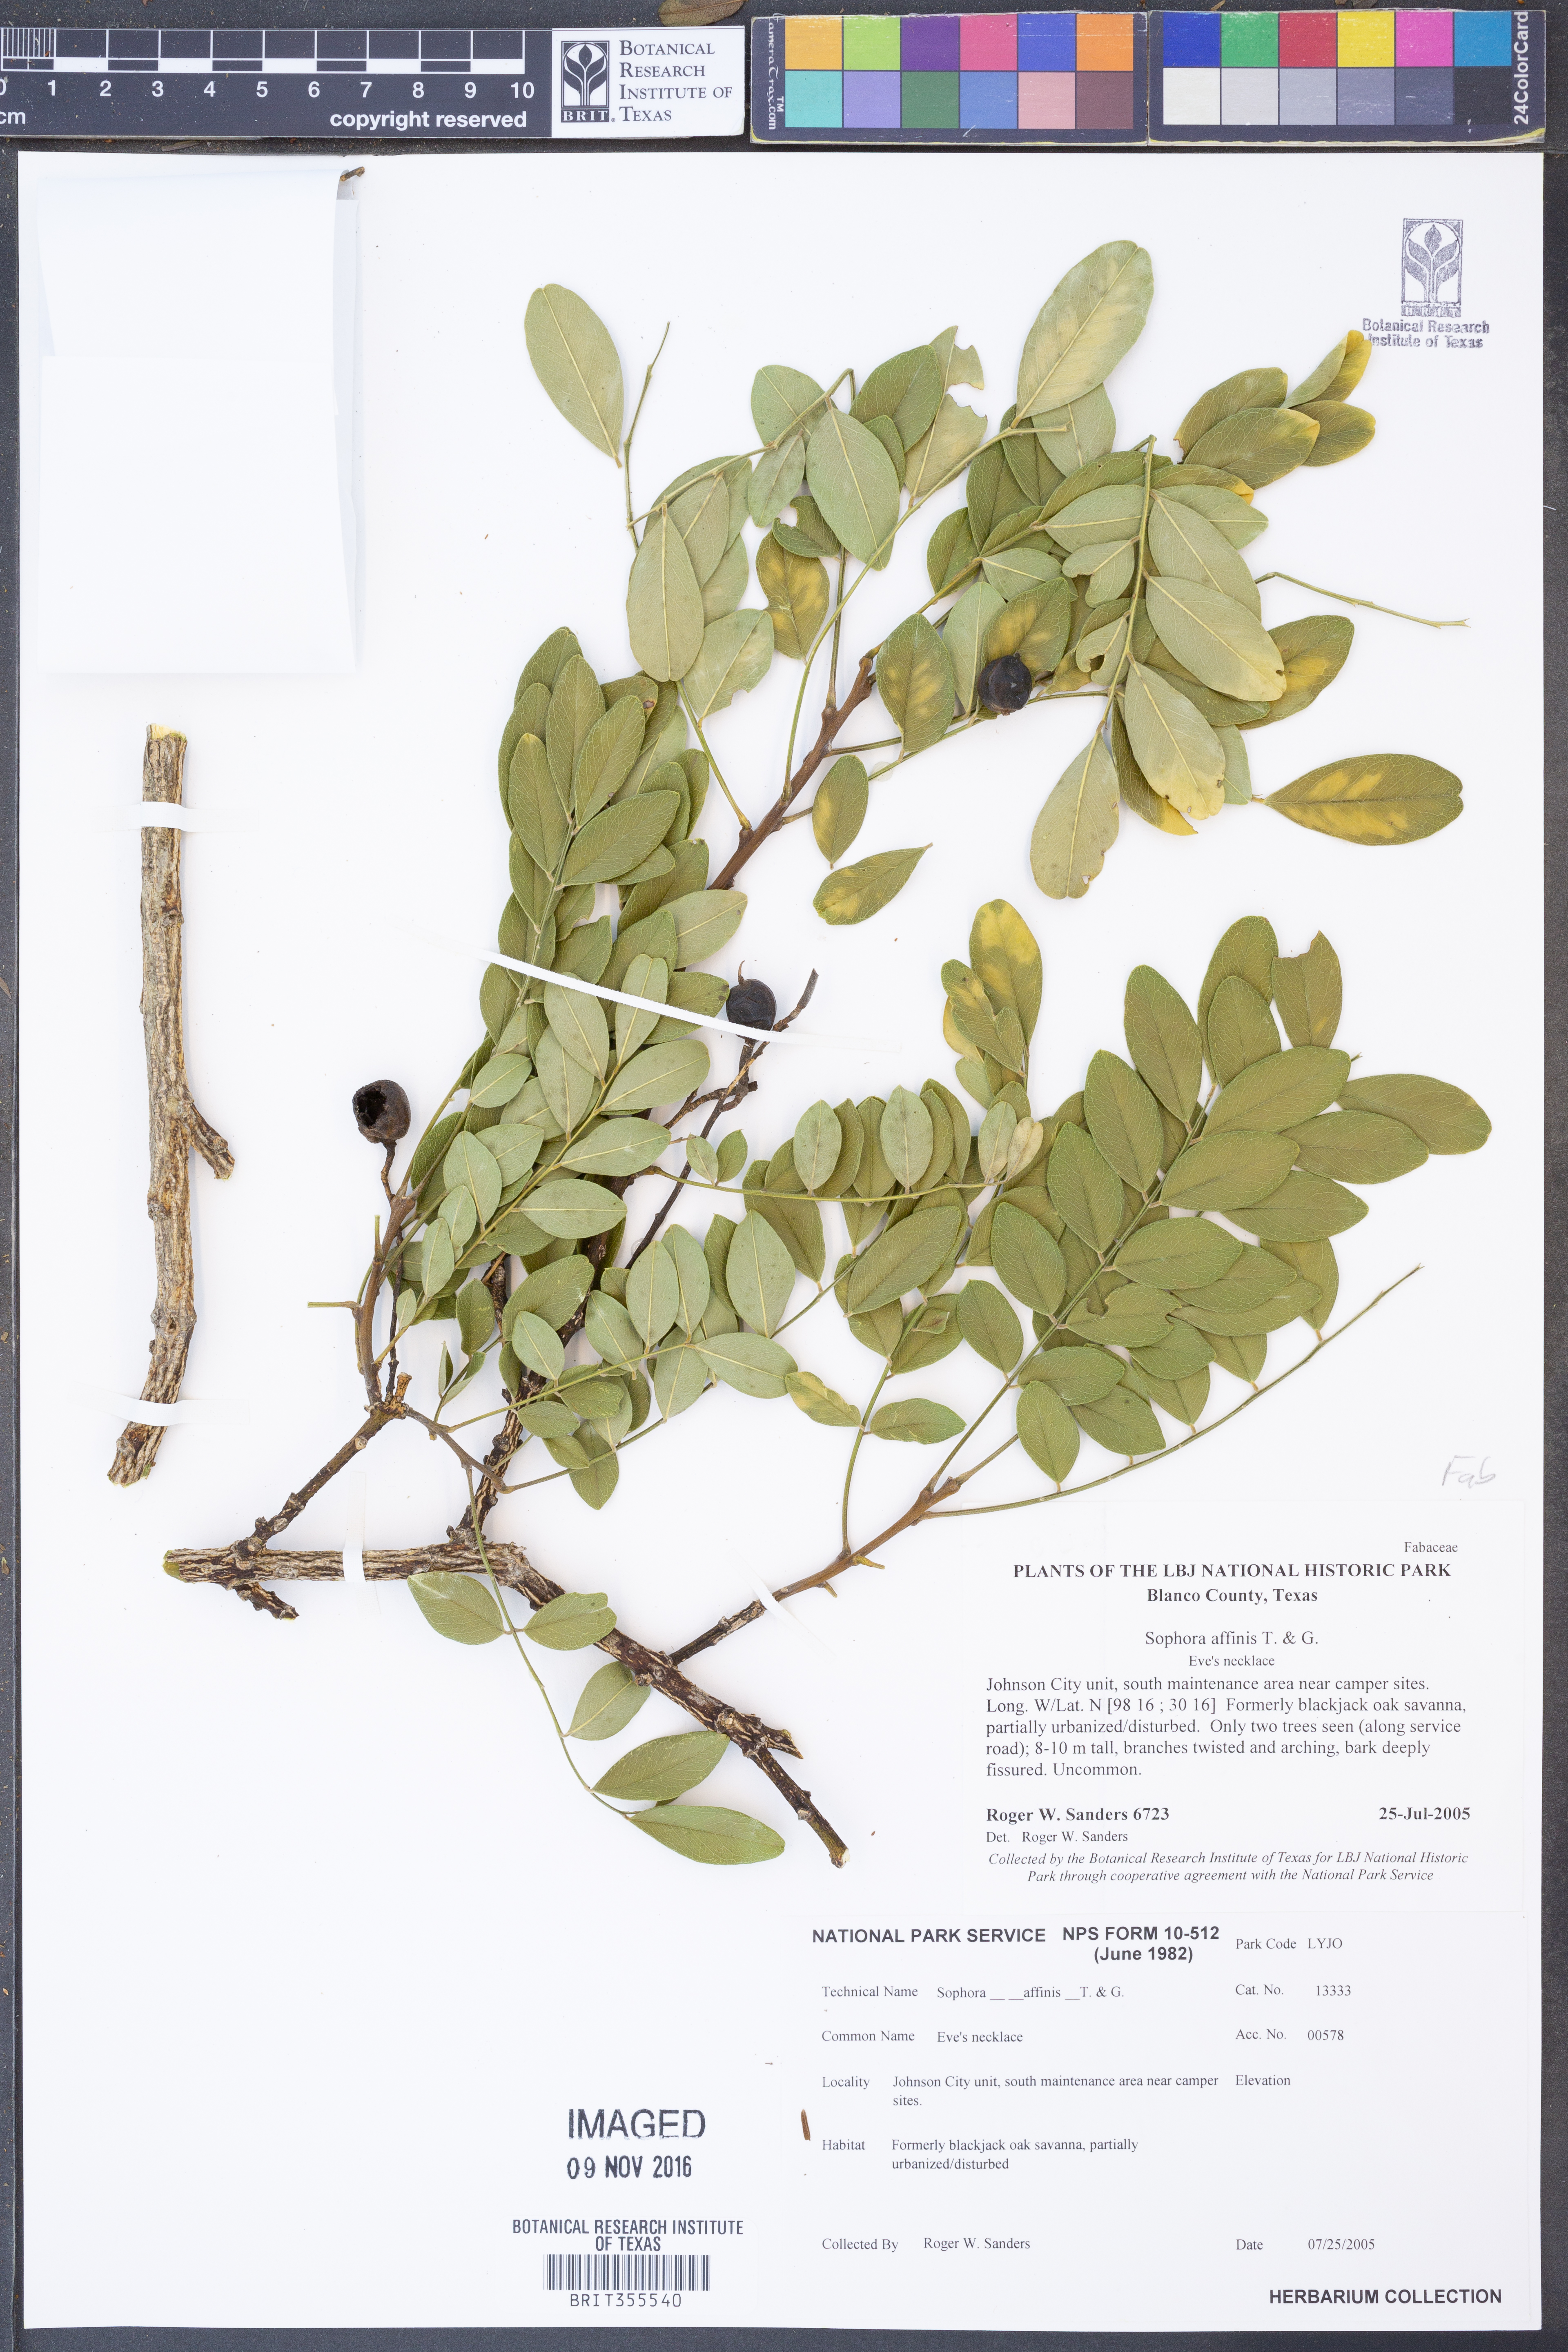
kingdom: Plantae
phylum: Tracheophyta
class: Magnoliopsida
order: Fabales
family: Fabaceae
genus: Styphnolobium
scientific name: Styphnolobium affine
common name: Texas sophora
